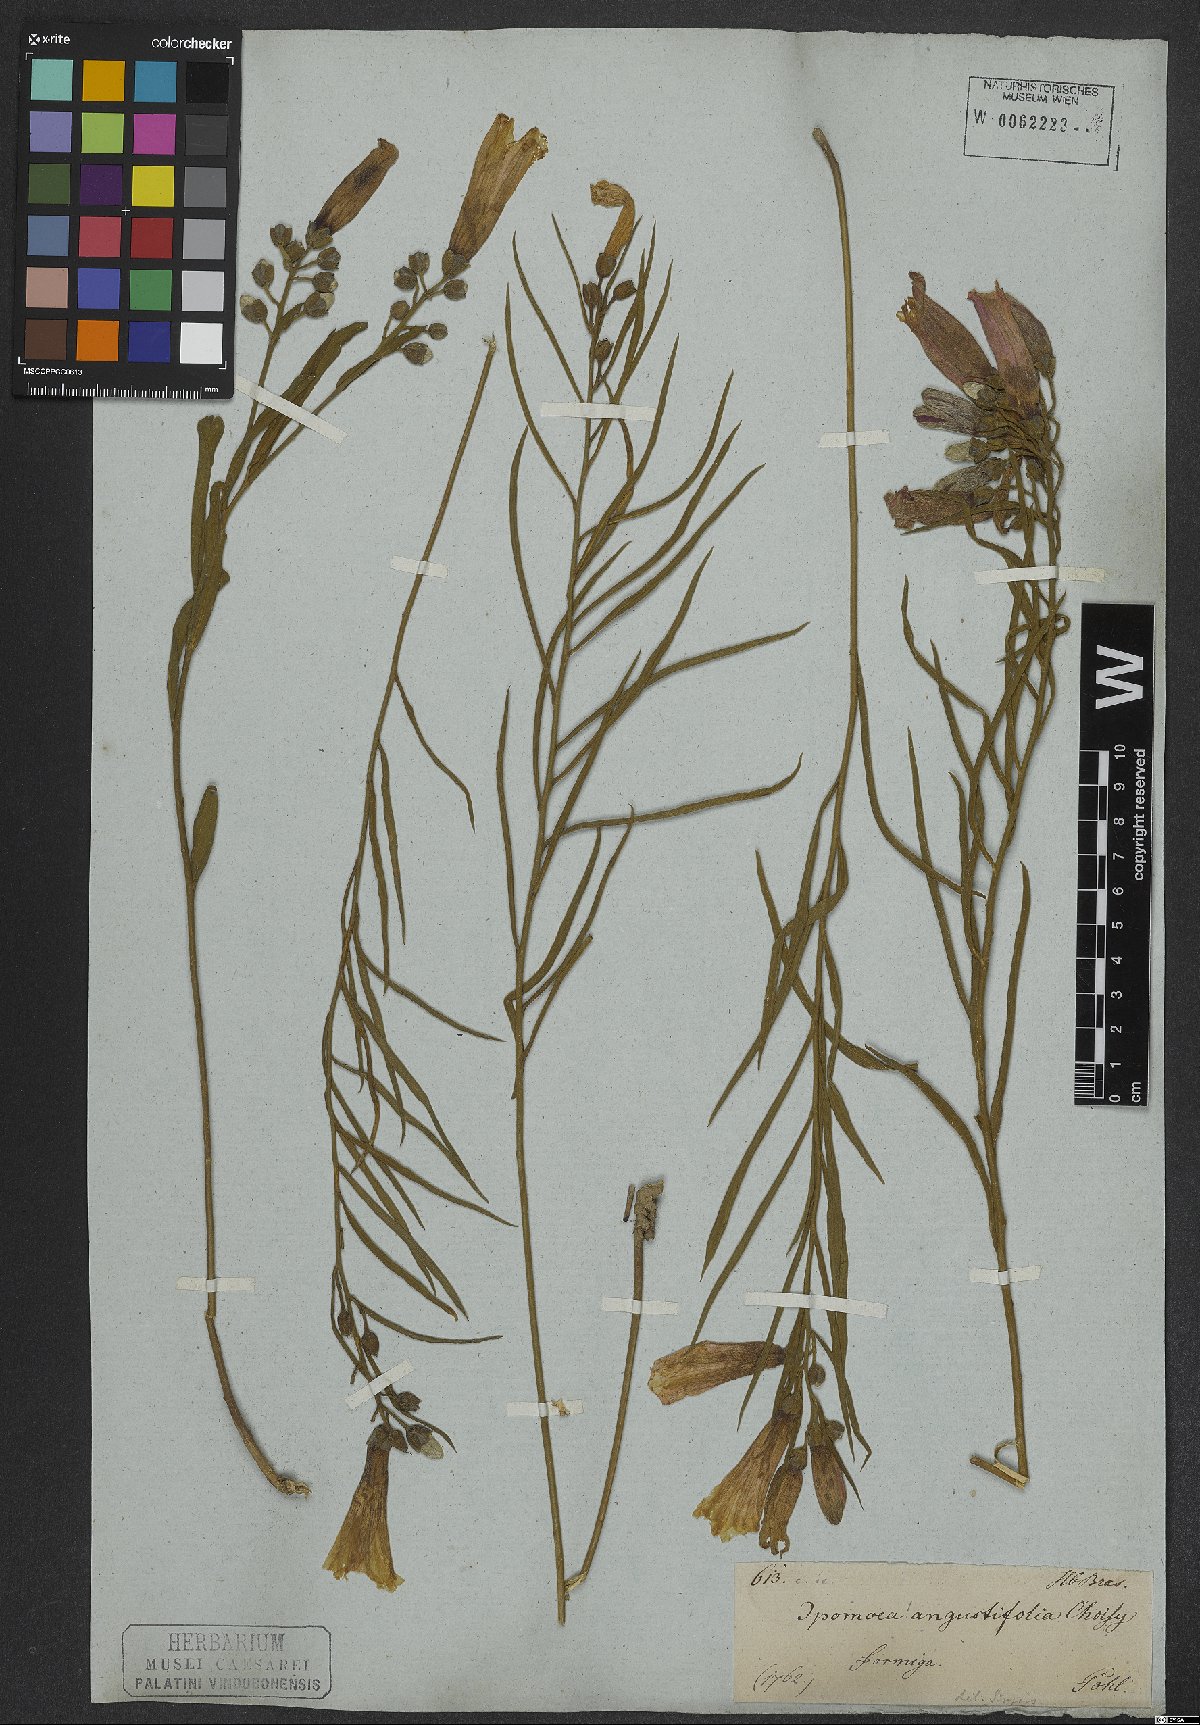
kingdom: Plantae
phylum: Tracheophyta
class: Magnoliopsida
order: Solanales
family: Convolvulaceae
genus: Xenostegia
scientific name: Xenostegia tridentata
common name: African morningvine
